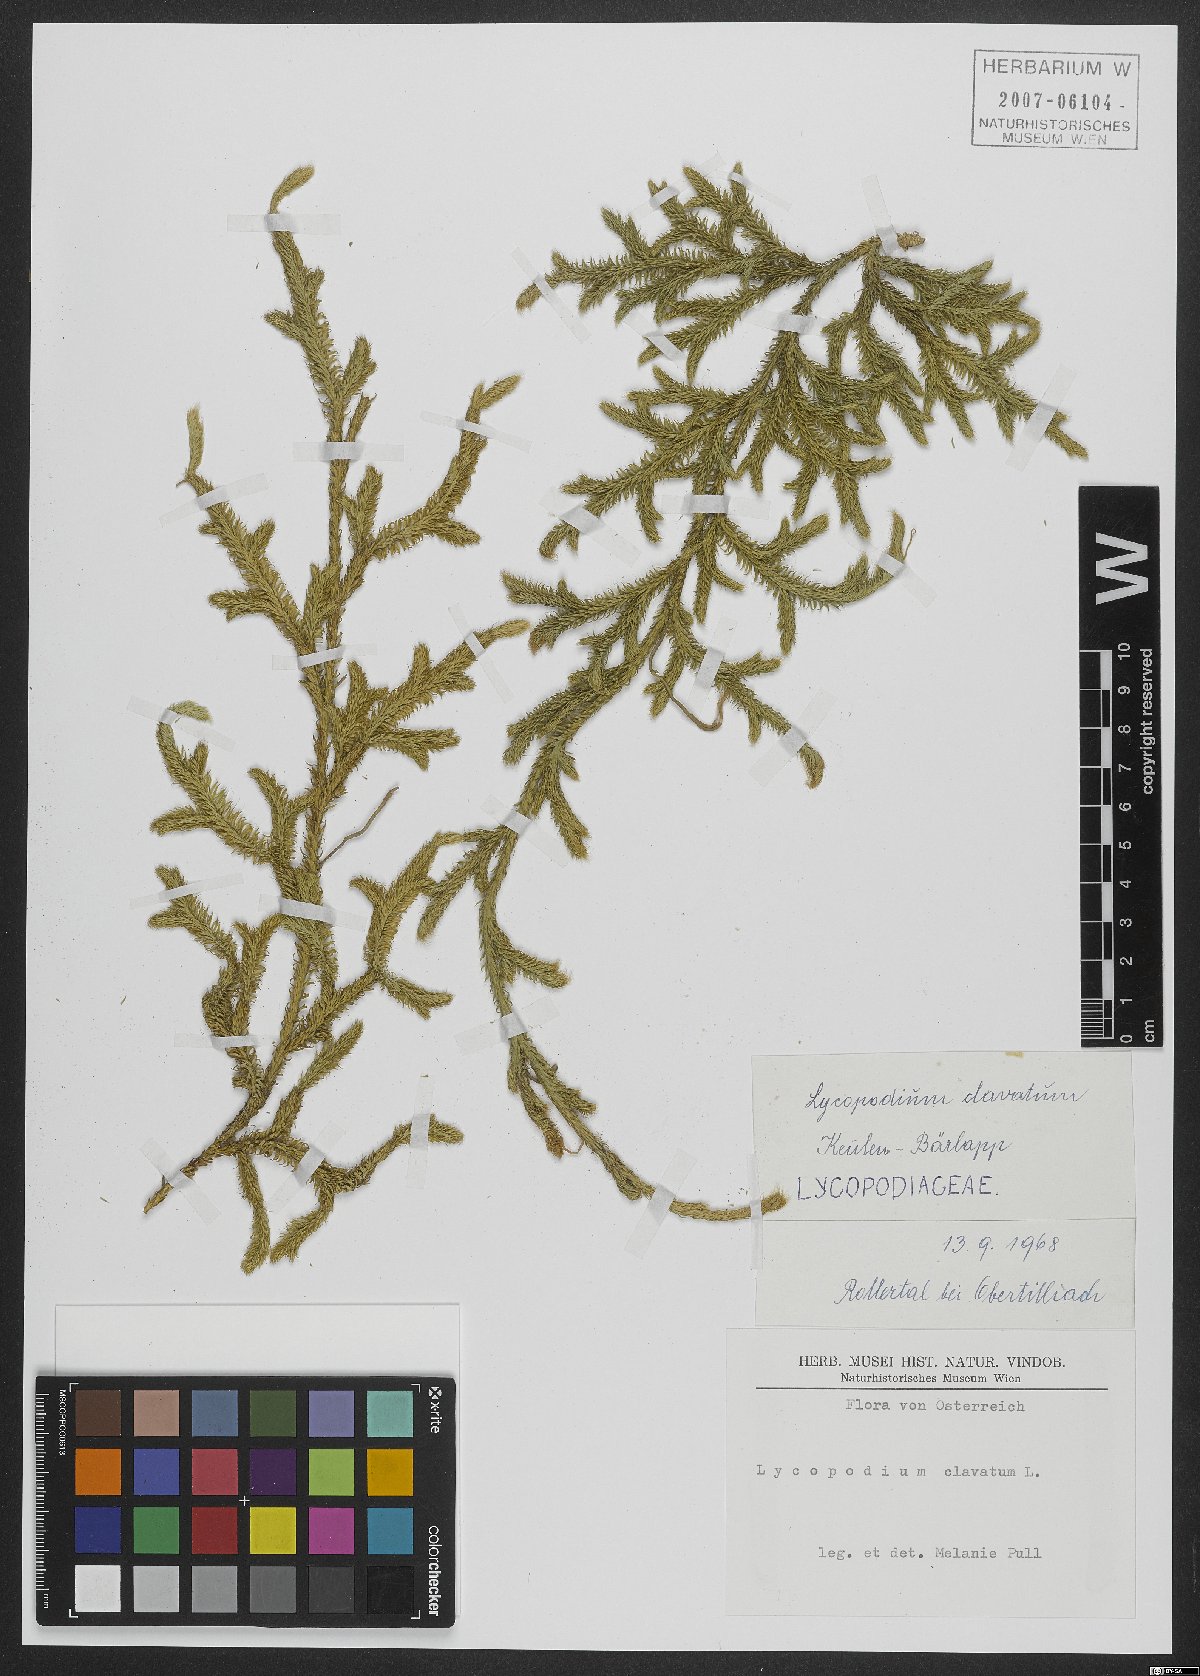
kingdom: Plantae
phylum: Tracheophyta
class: Lycopodiopsida
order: Lycopodiales
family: Lycopodiaceae
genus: Lycopodium
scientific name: Lycopodium clavatum
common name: Stag's-horn clubmoss
